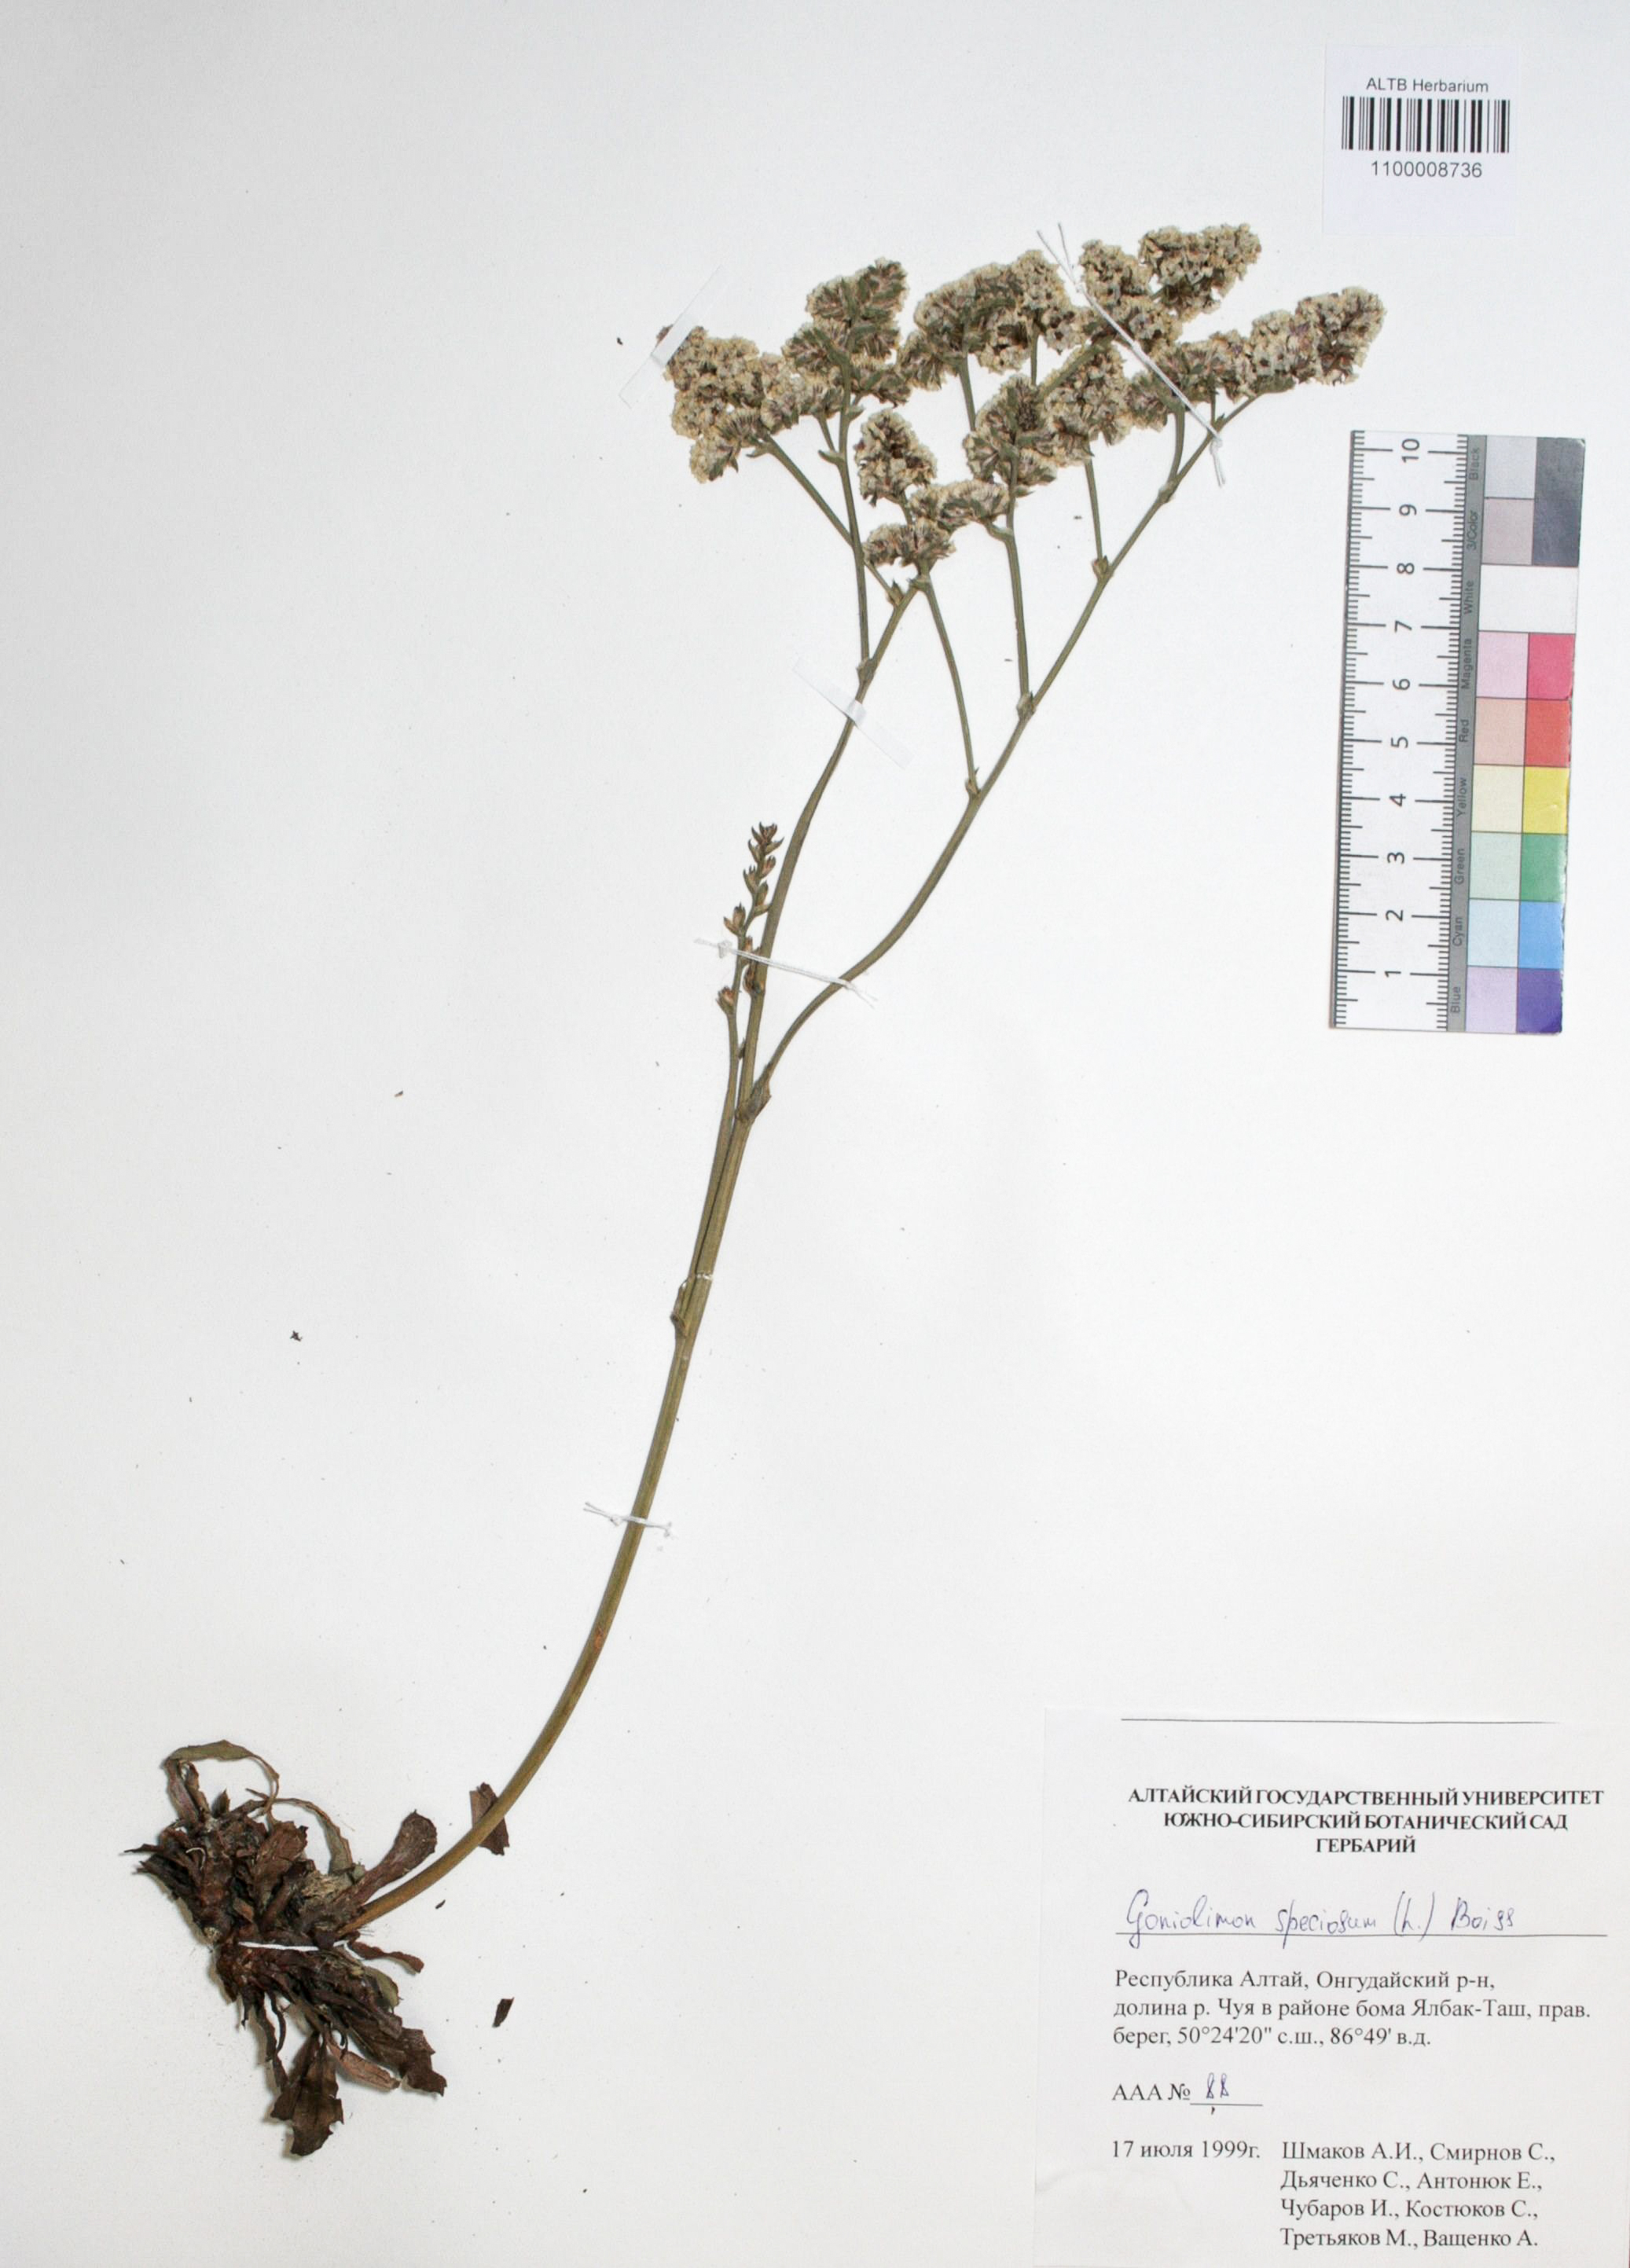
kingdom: Plantae
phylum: Tracheophyta
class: Magnoliopsida
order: Caryophyllales
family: Plumbaginaceae
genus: Goniolimon
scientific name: Goniolimon speciosum
